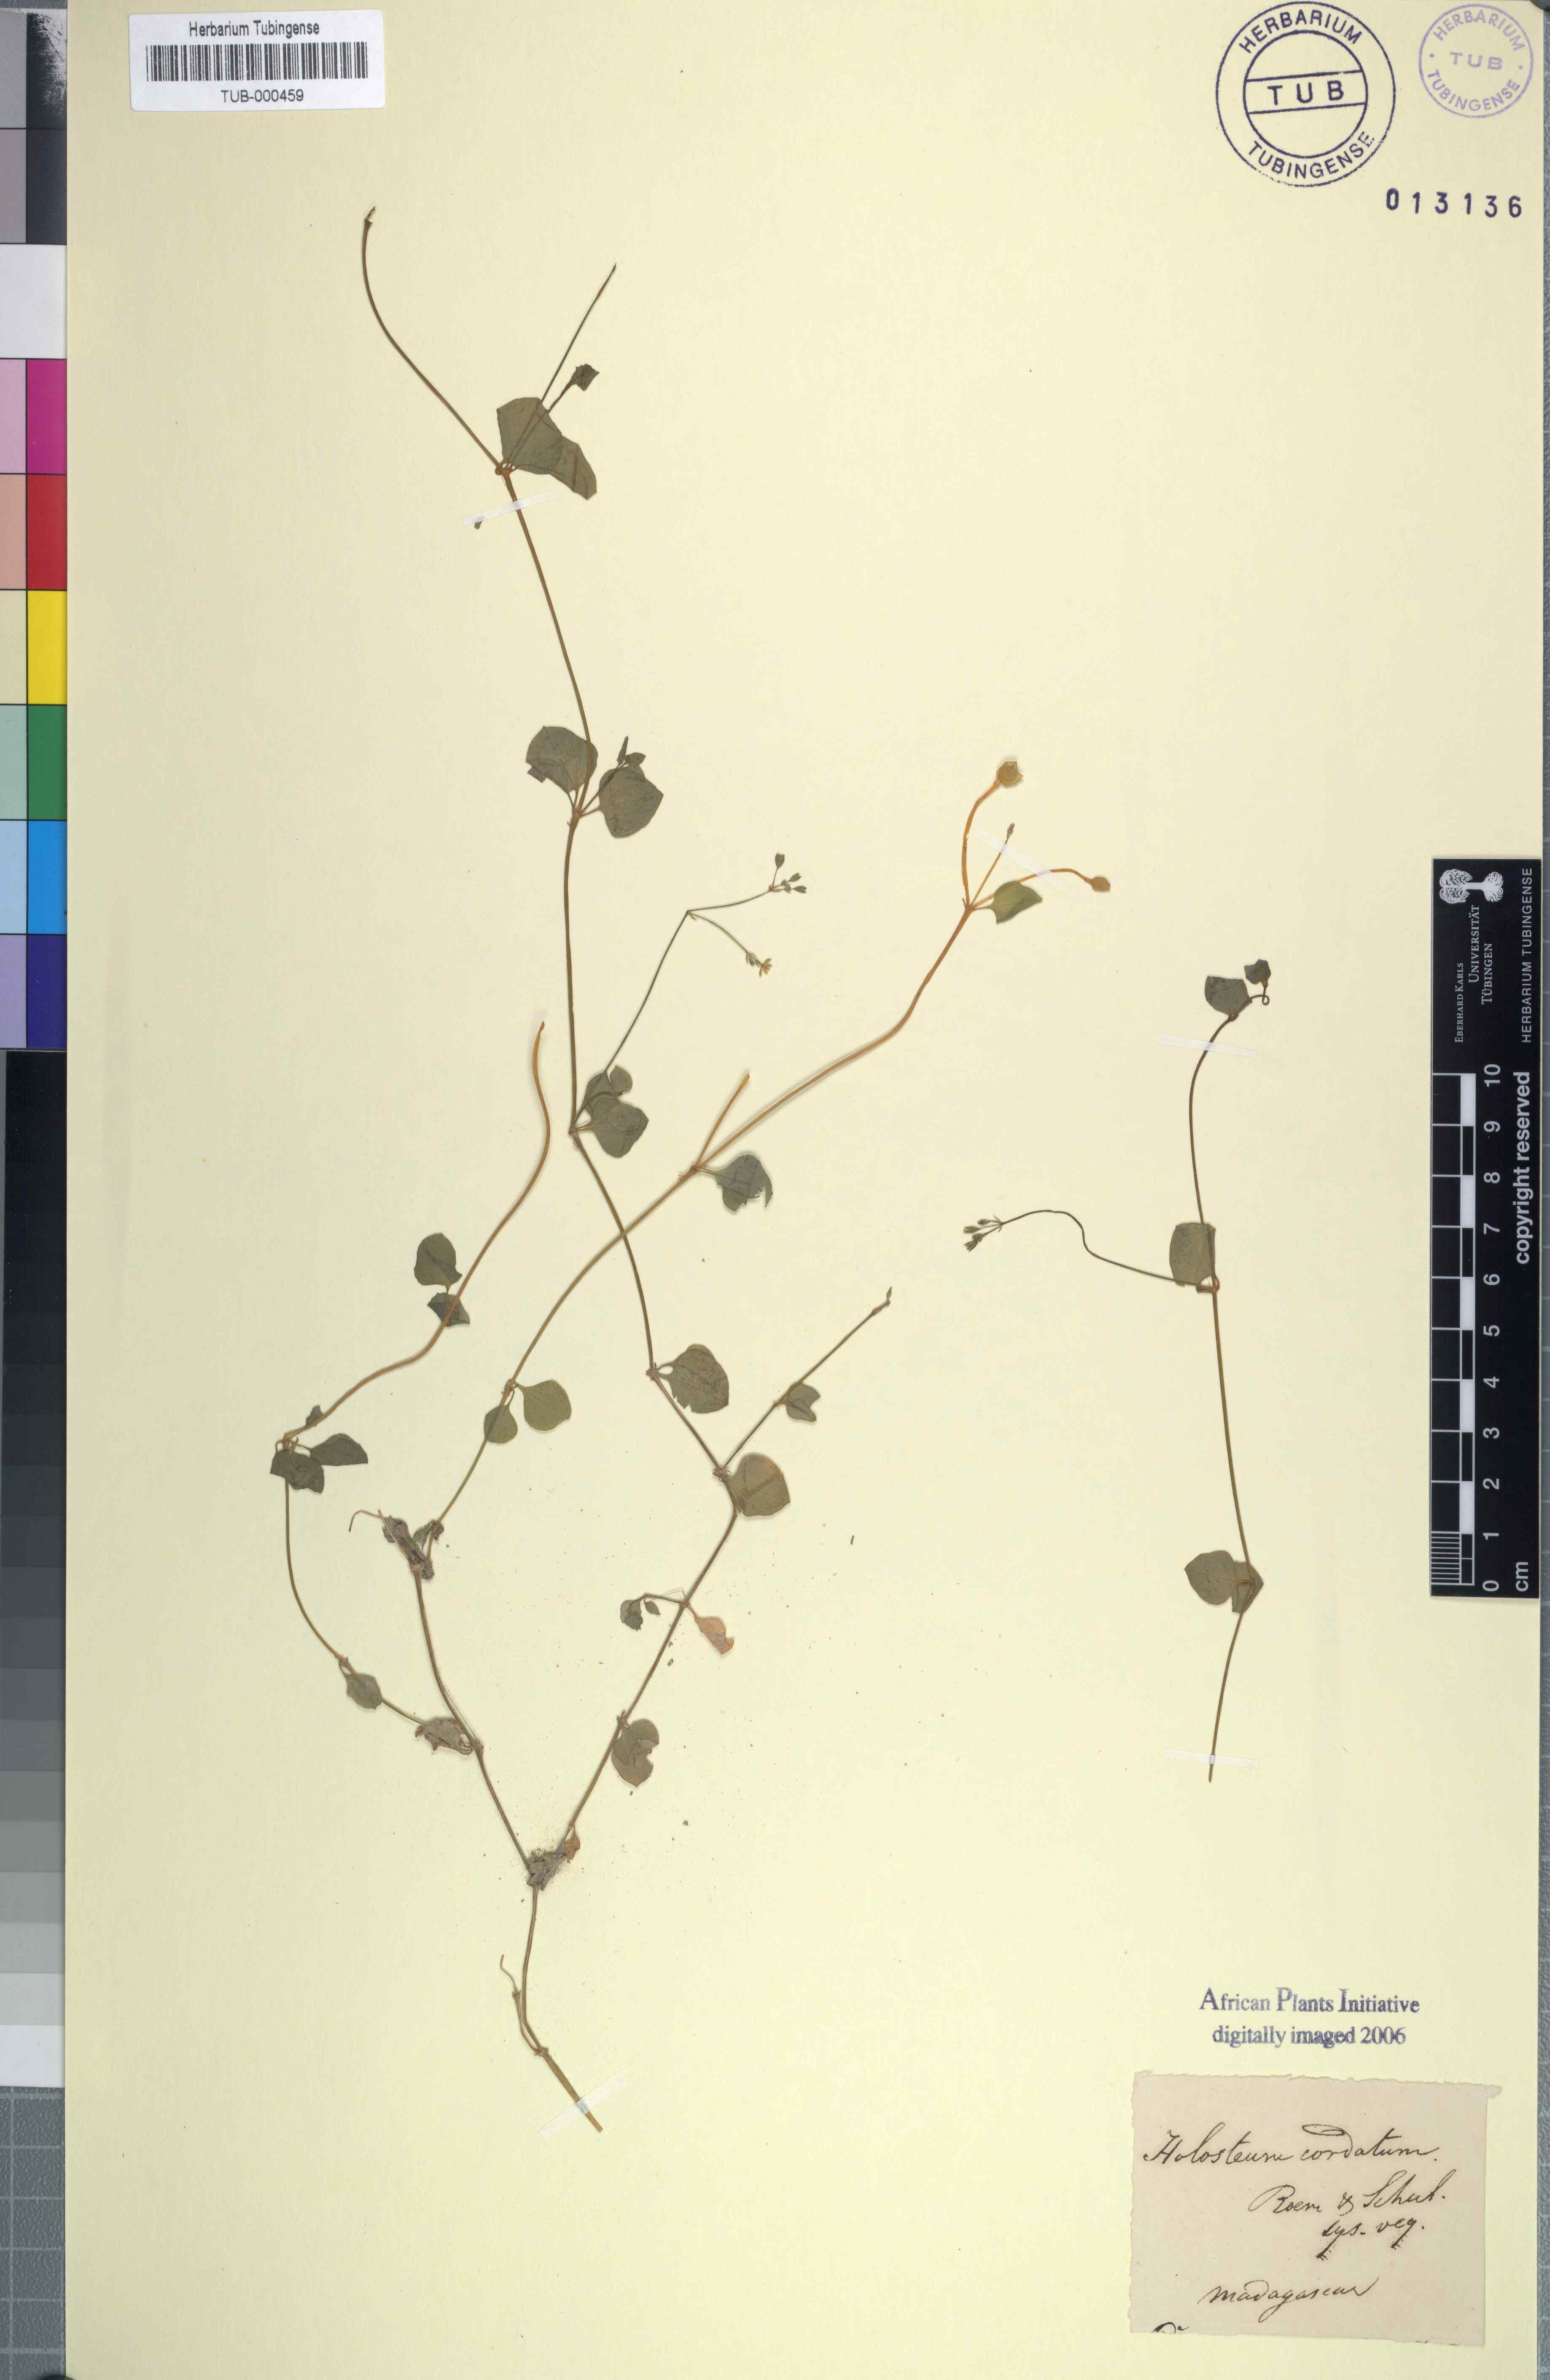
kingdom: Plantae
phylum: Tracheophyta
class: Magnoliopsida
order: Caryophyllales
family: Caryophyllaceae
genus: Drymaria
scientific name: Drymaria cordata
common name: Whitesnow
